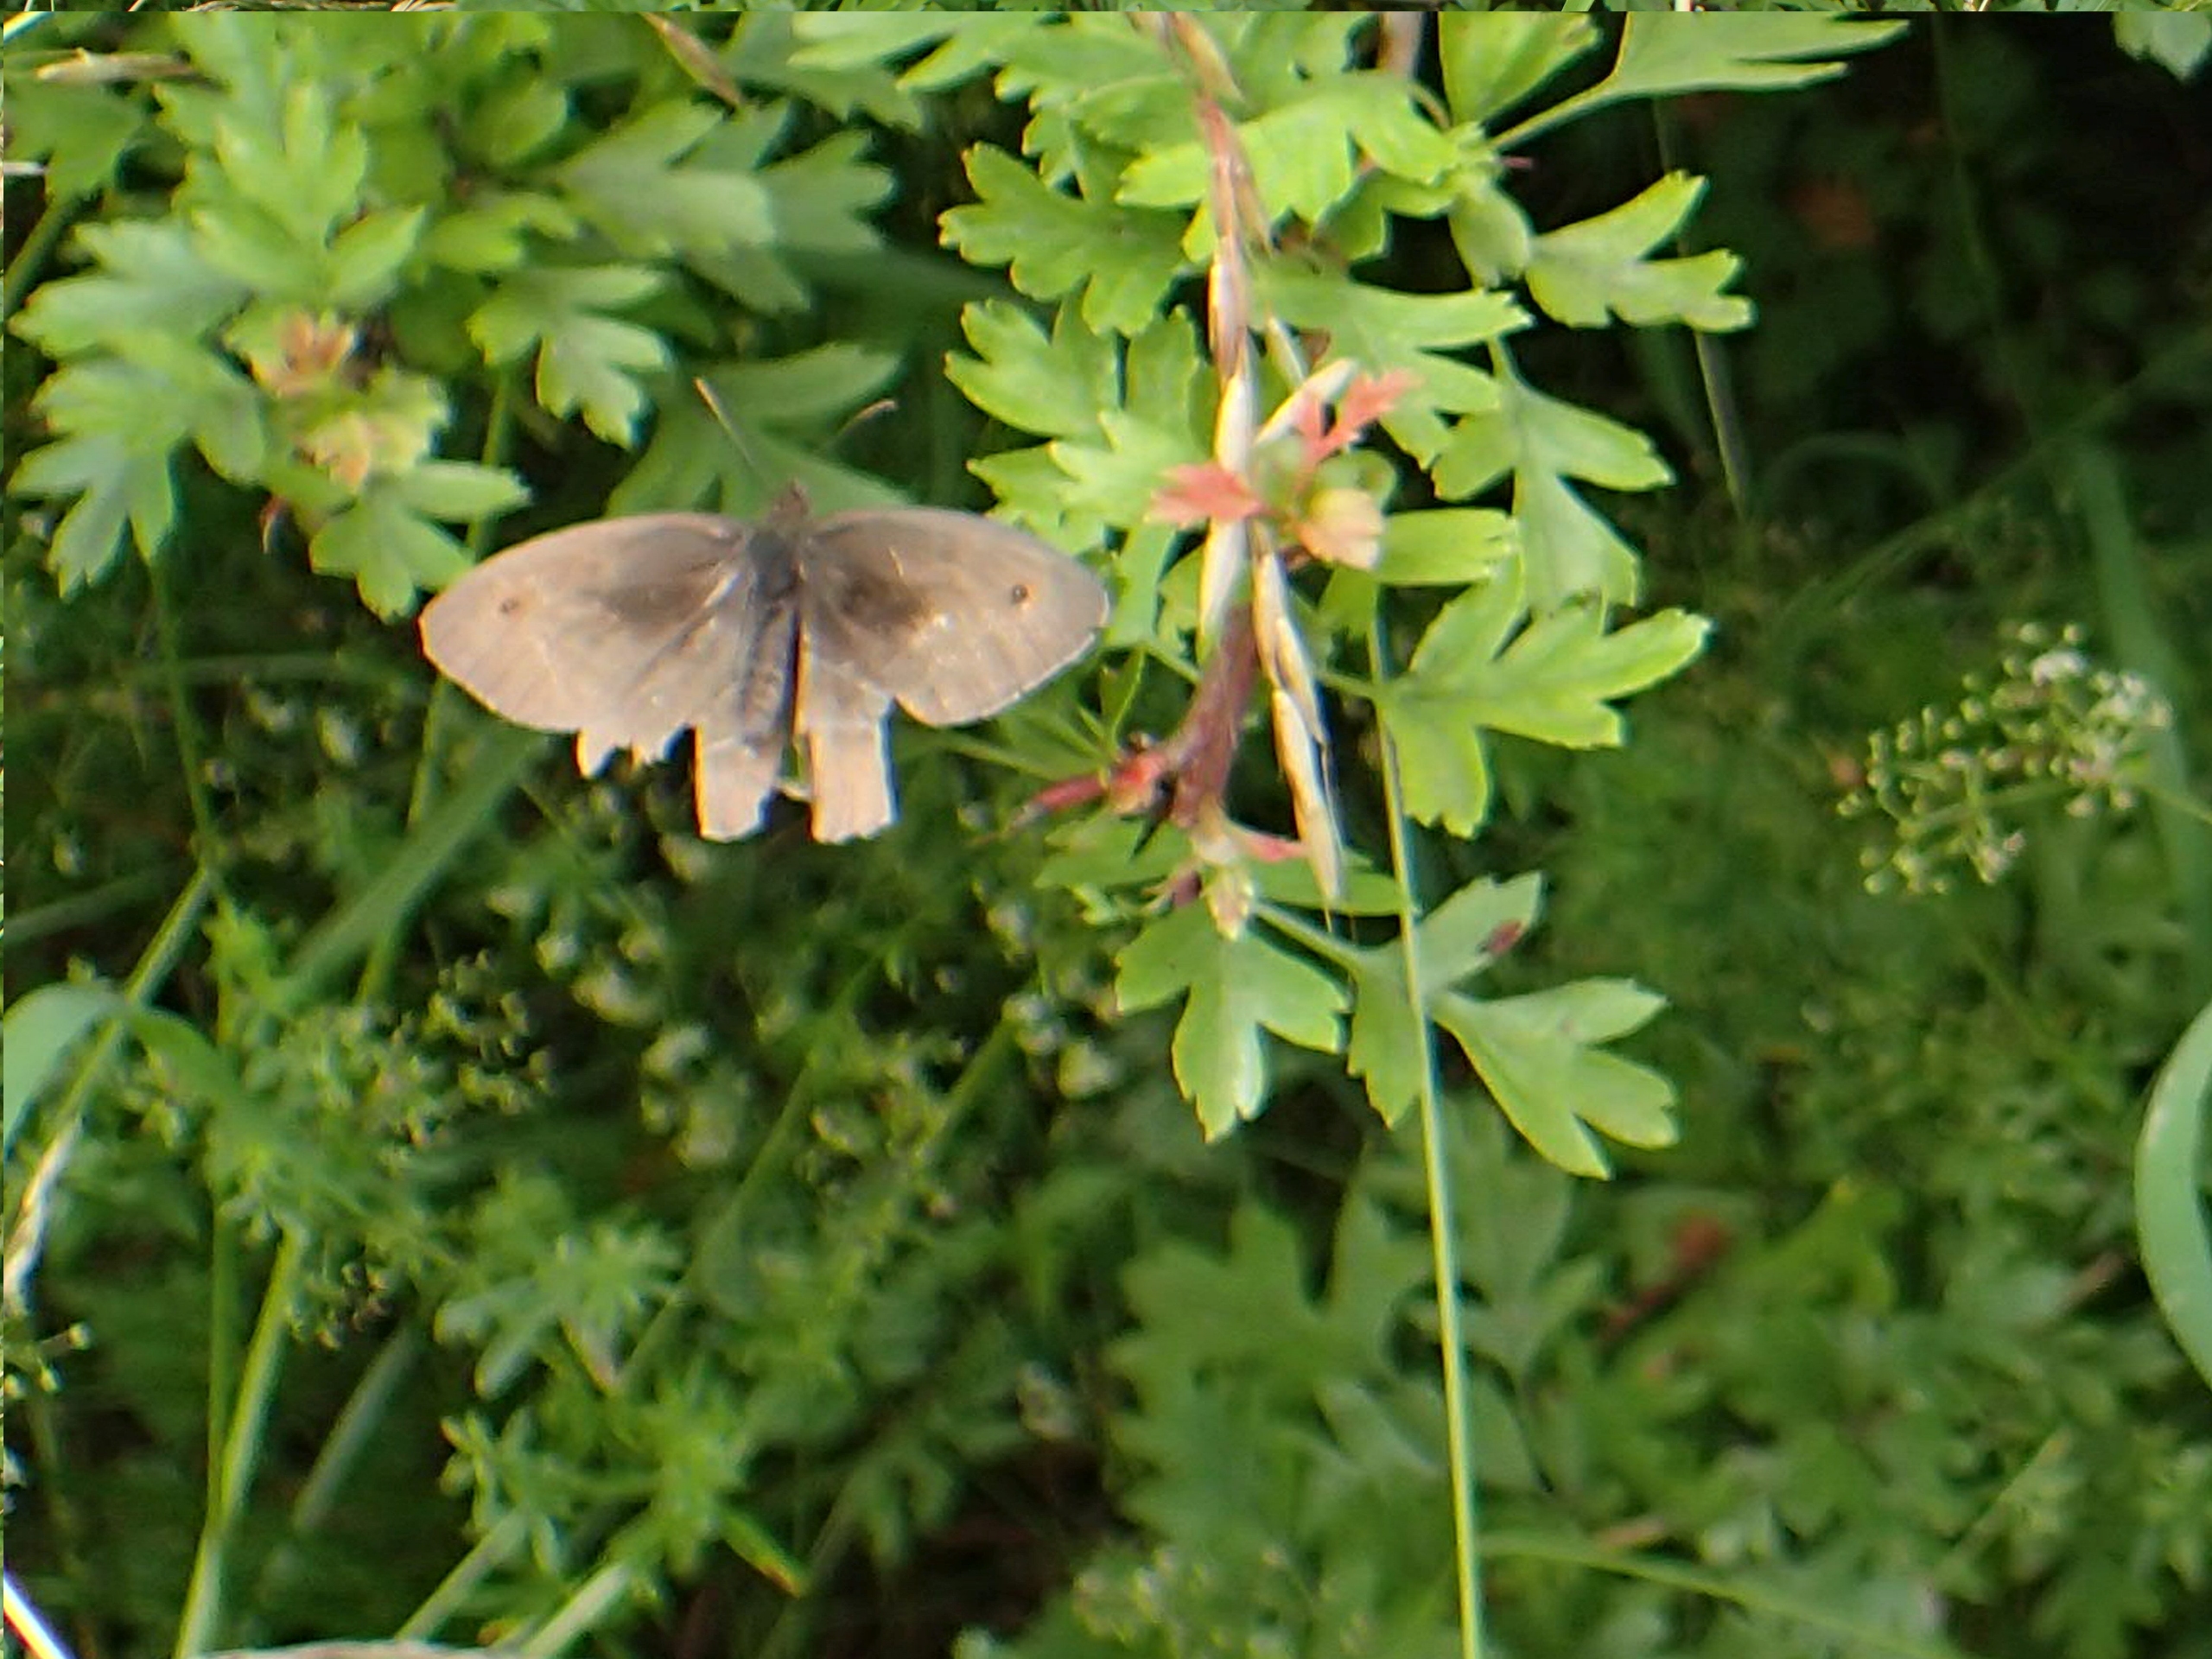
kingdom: Animalia
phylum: Arthropoda
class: Insecta
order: Lepidoptera
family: Nymphalidae
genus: Maniola
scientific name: Maniola jurtina
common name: Græsrandøje
